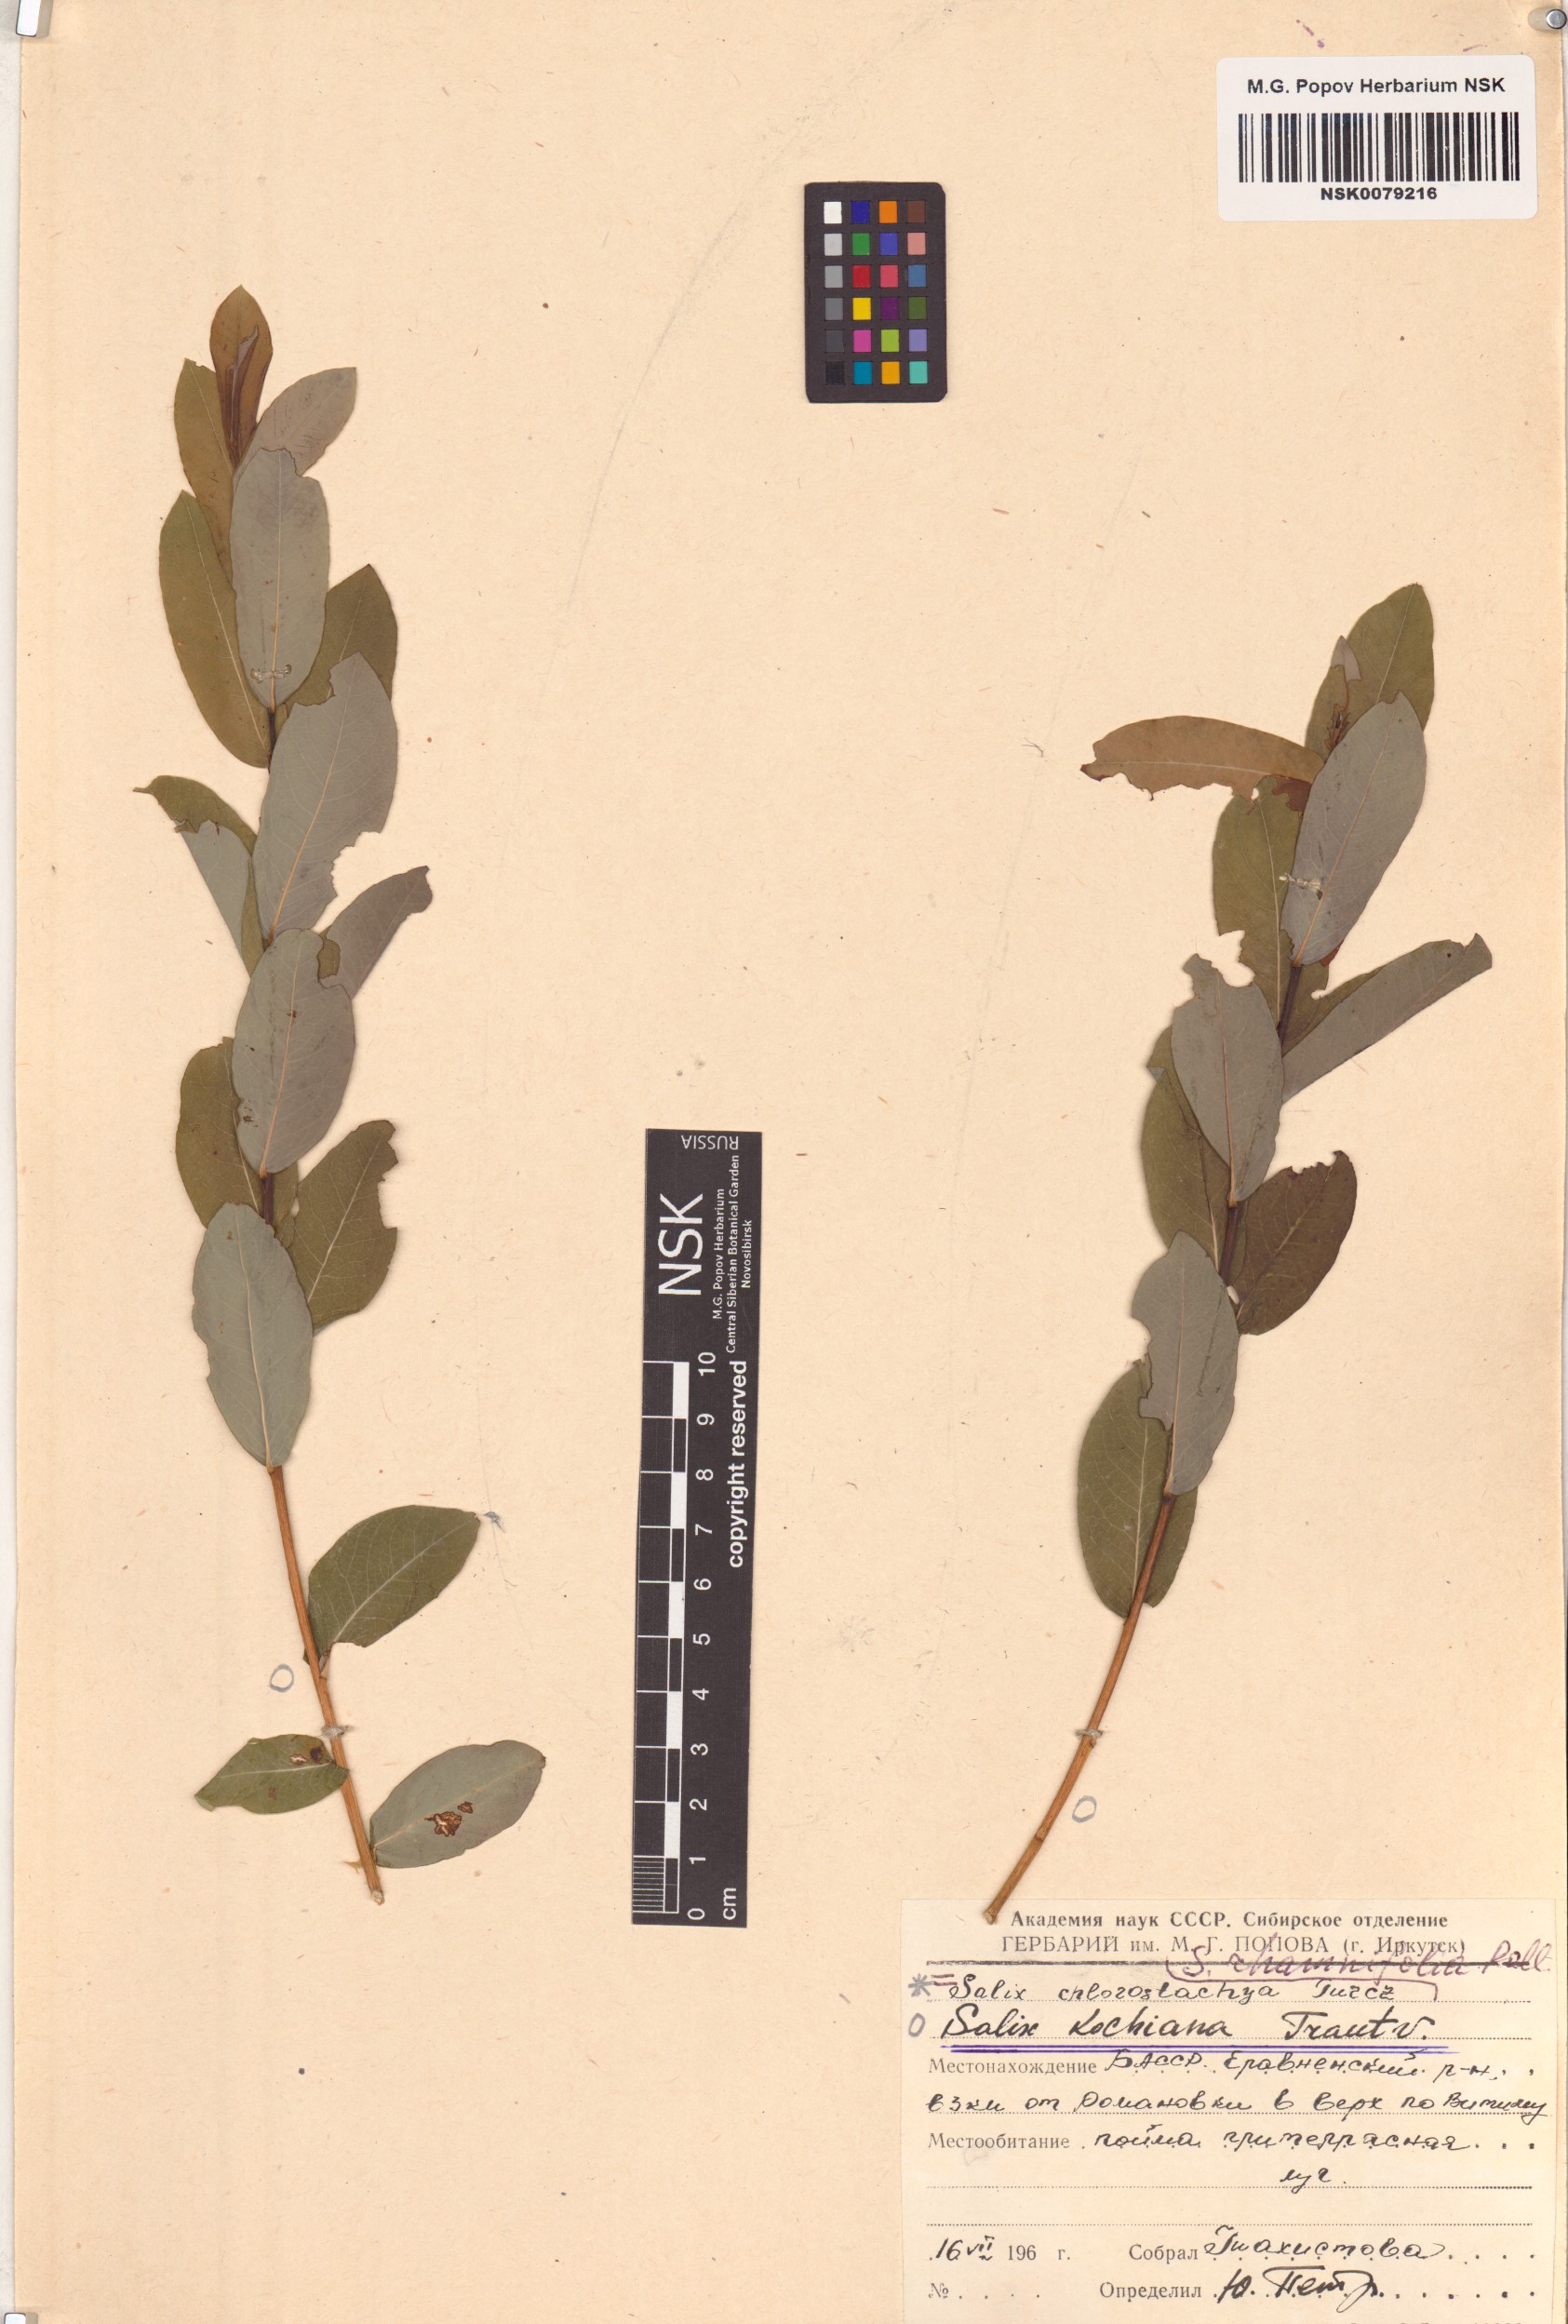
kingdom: Plantae
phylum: Tracheophyta
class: Magnoliopsida
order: Malpighiales
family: Salicaceae
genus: Salix
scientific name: Salix kochiana
